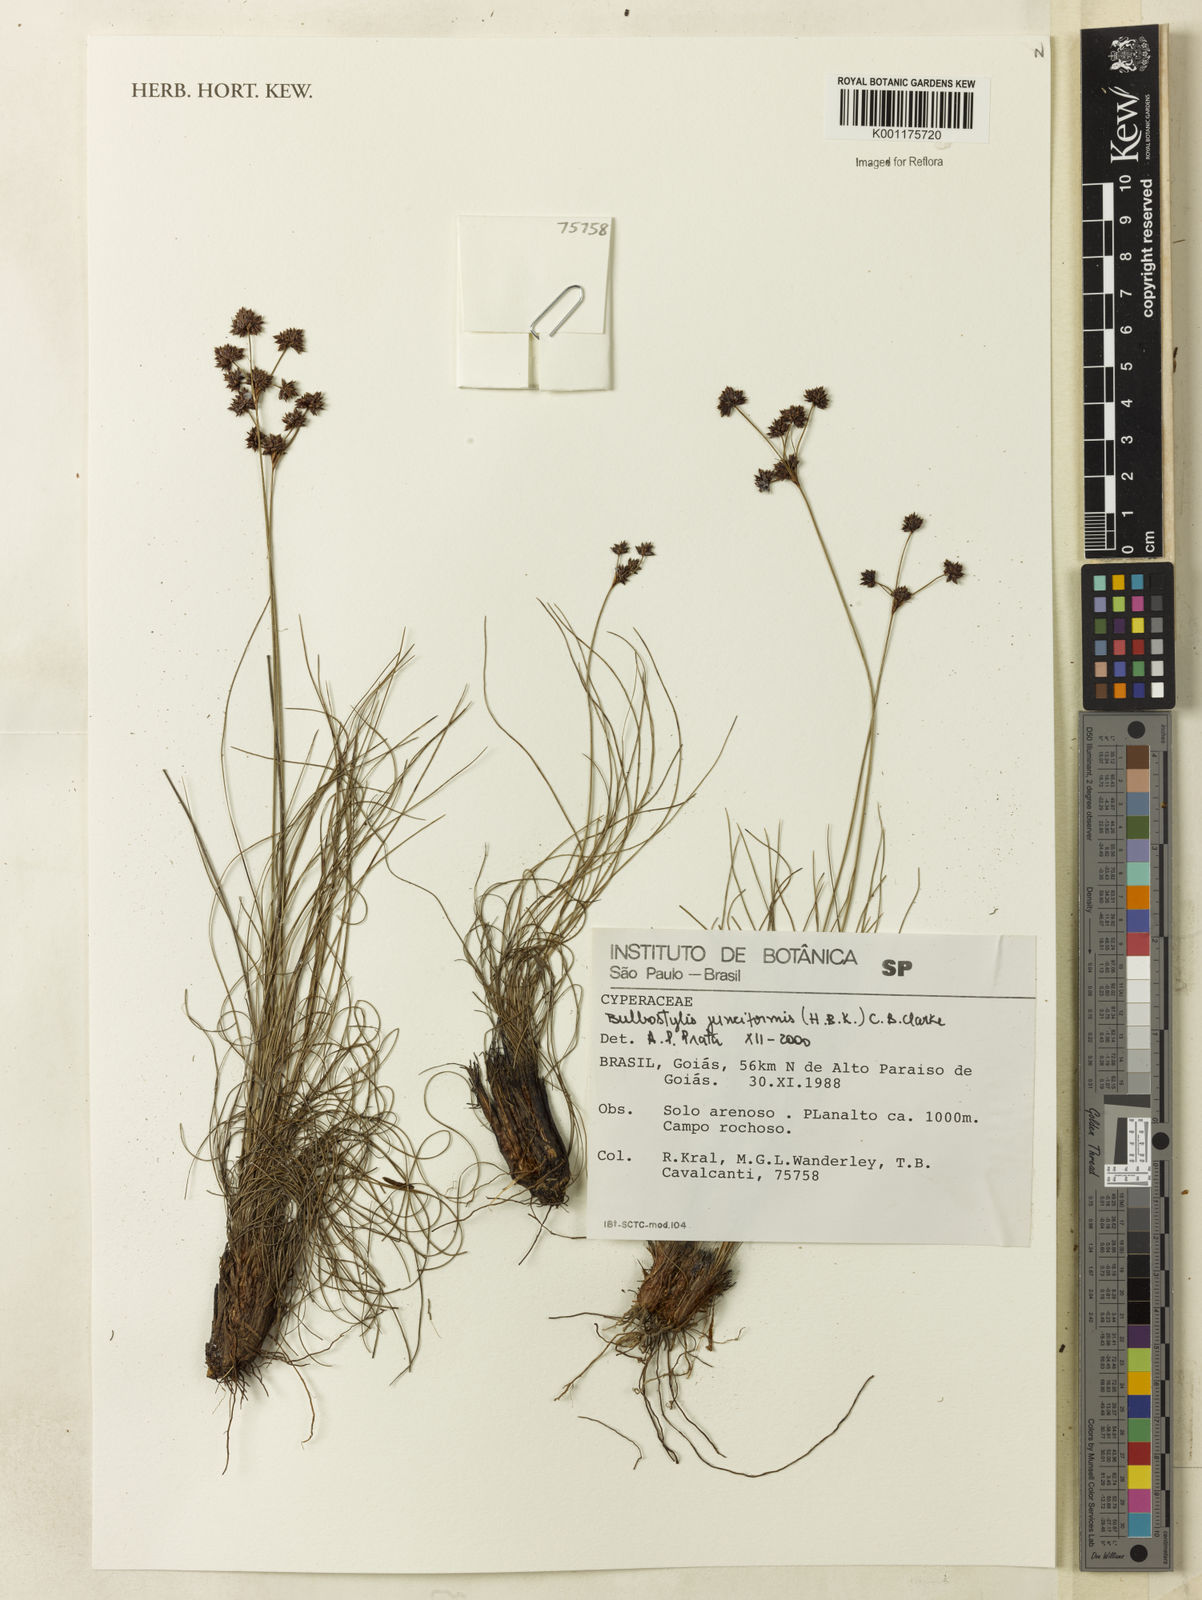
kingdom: Plantae
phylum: Tracheophyta
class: Liliopsida
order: Poales
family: Cyperaceae
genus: Bulbostylis
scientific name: Bulbostylis junciformis
